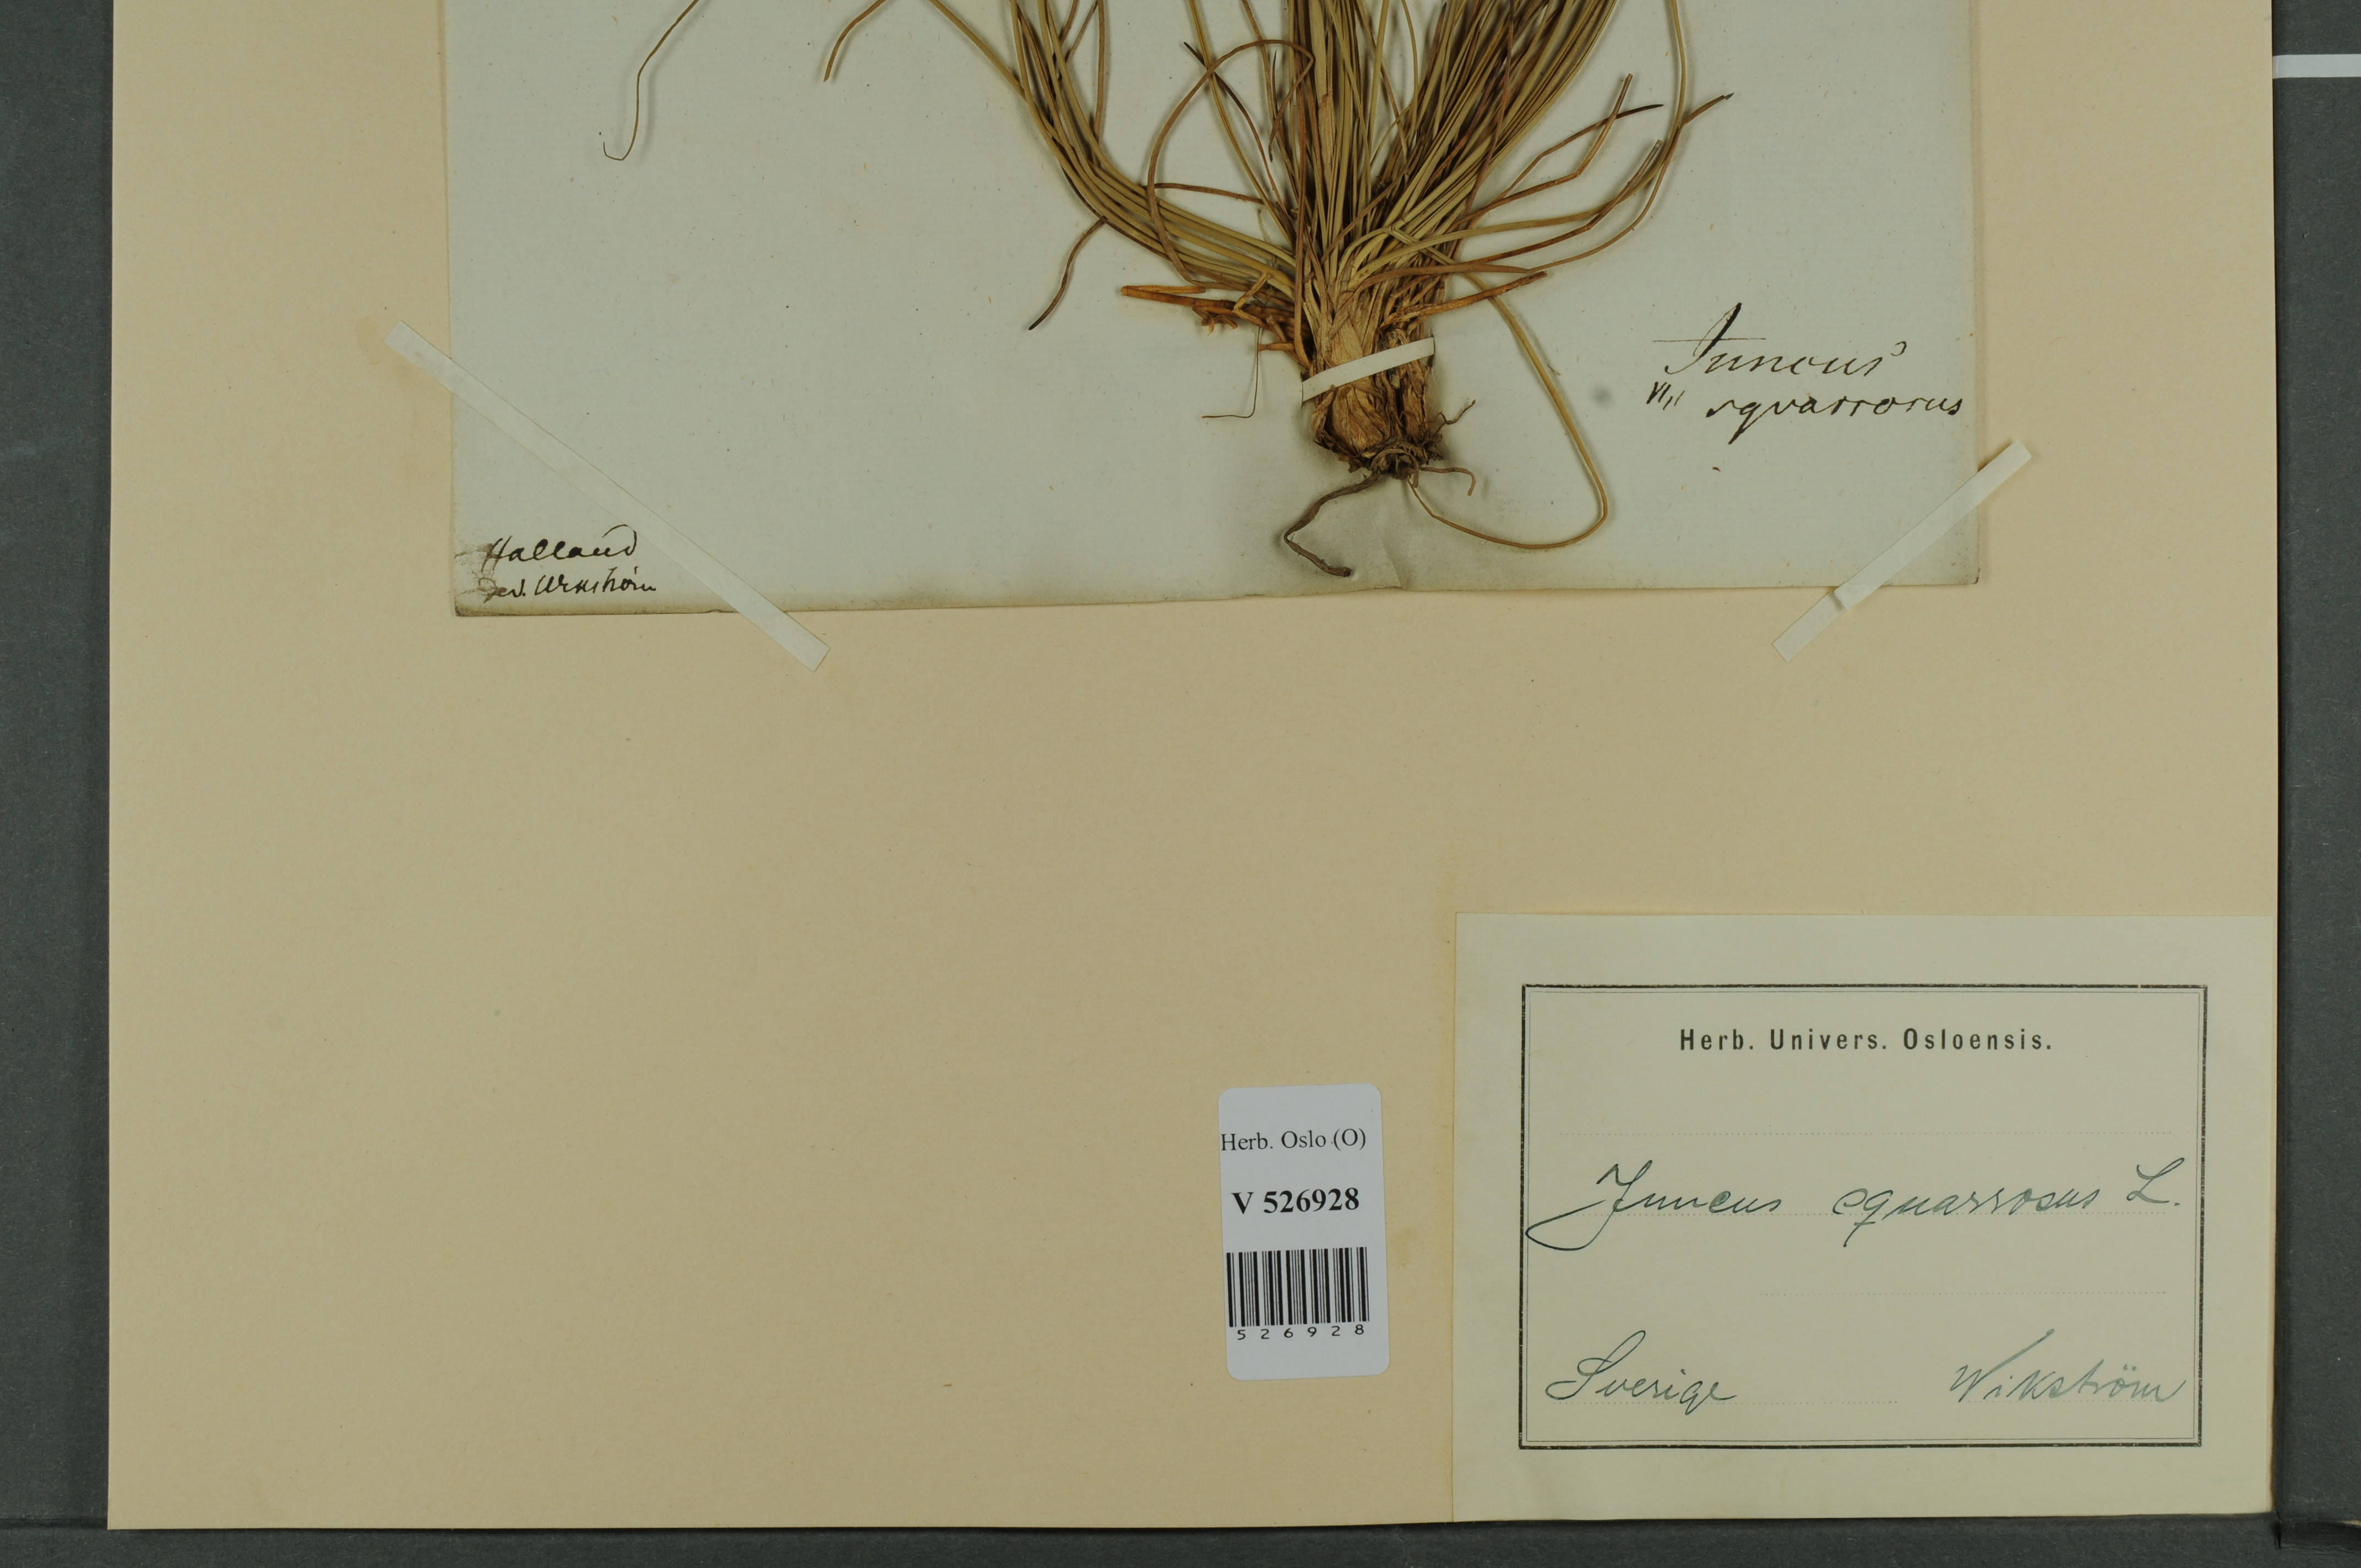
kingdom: Plantae
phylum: Tracheophyta
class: Liliopsida
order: Poales
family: Juncaceae
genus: Juncus
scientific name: Juncus squarrosus
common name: Heath rush
